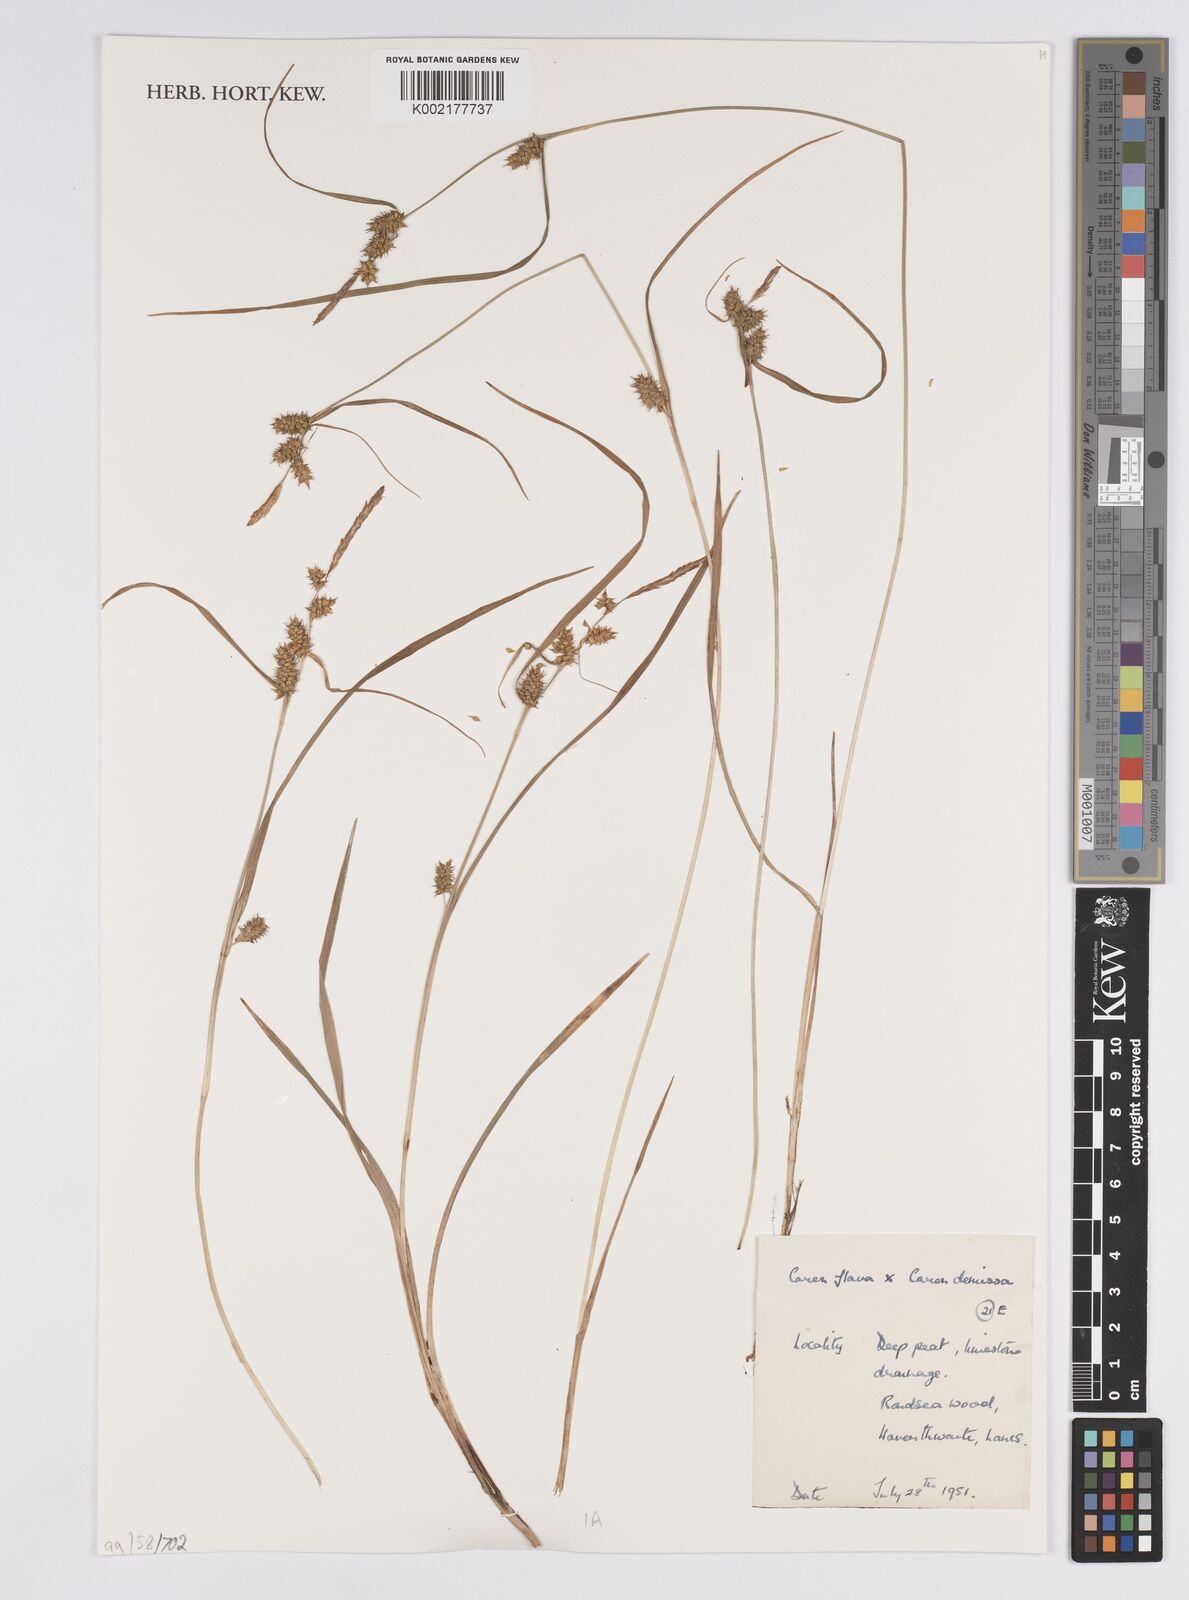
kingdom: Plantae
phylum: Tracheophyta
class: Liliopsida
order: Poales
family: Cyperaceae
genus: Carex
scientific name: Carex flava
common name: Large yellow-sedge
